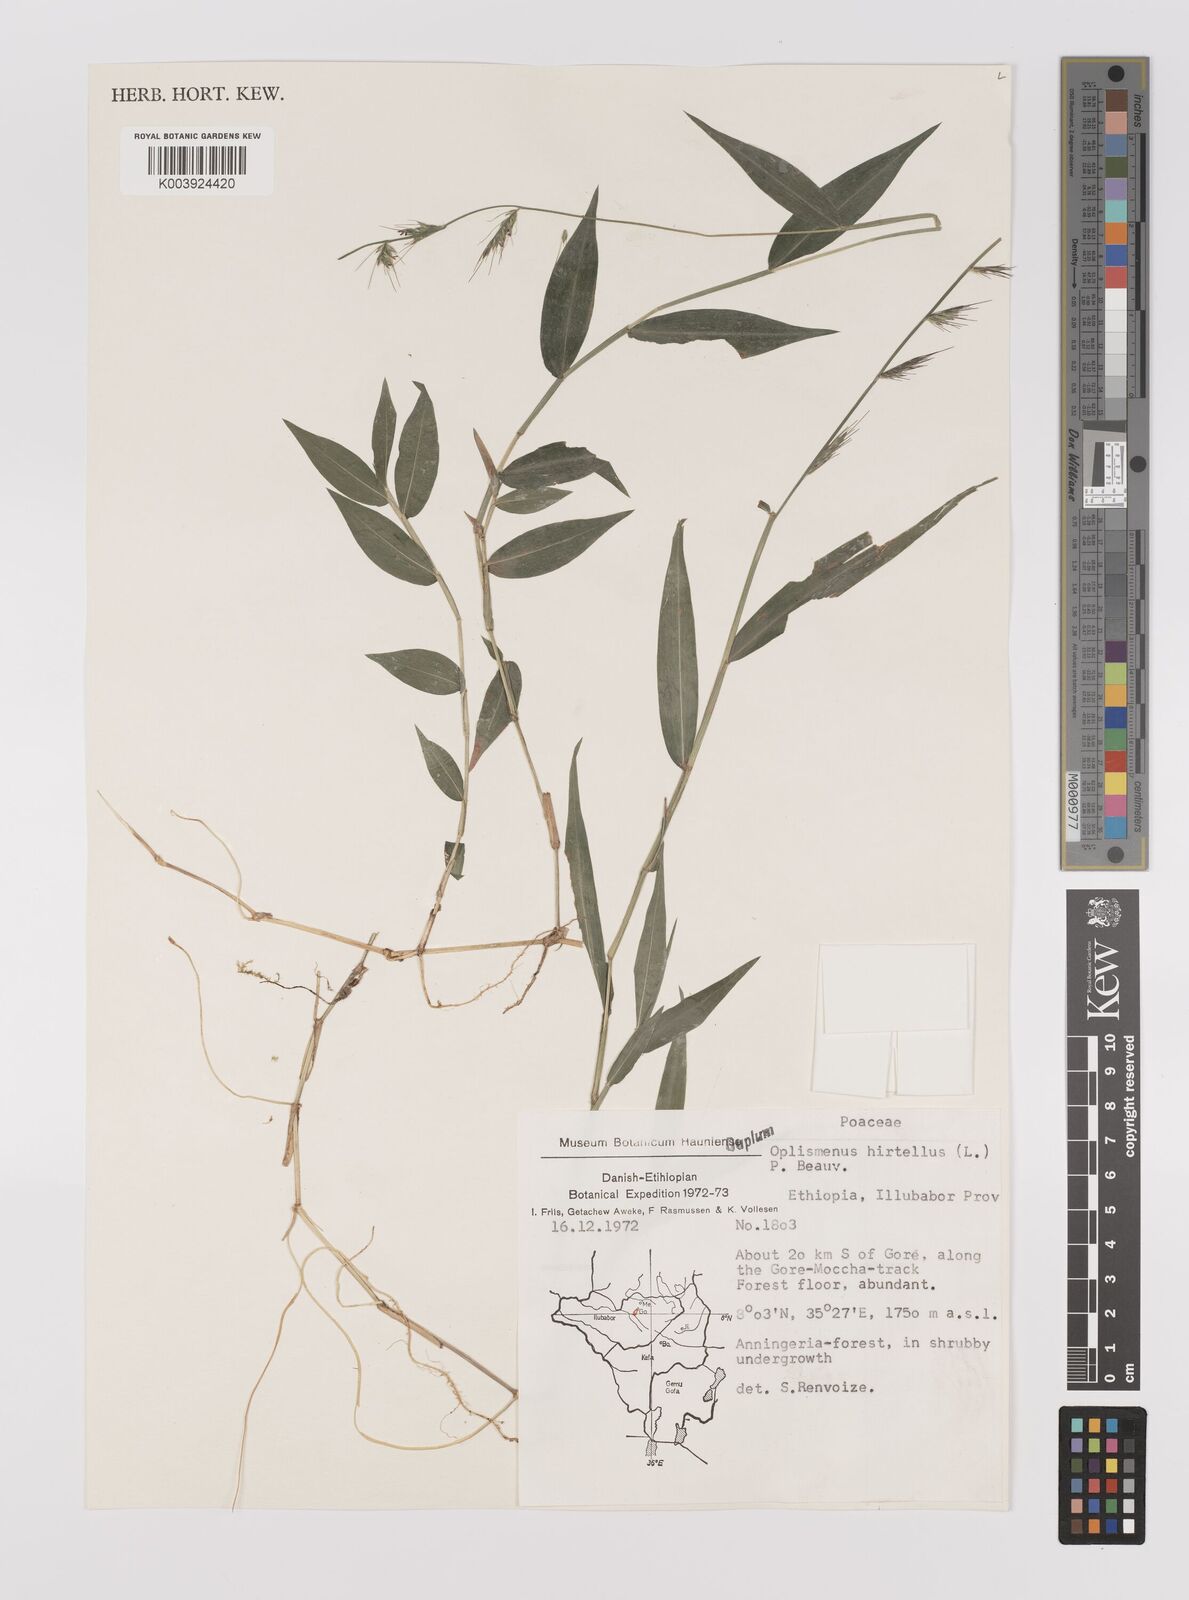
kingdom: Plantae
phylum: Tracheophyta
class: Liliopsida
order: Poales
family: Poaceae
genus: Oplismenus
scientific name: Oplismenus hirtellus
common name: Basketgrass
